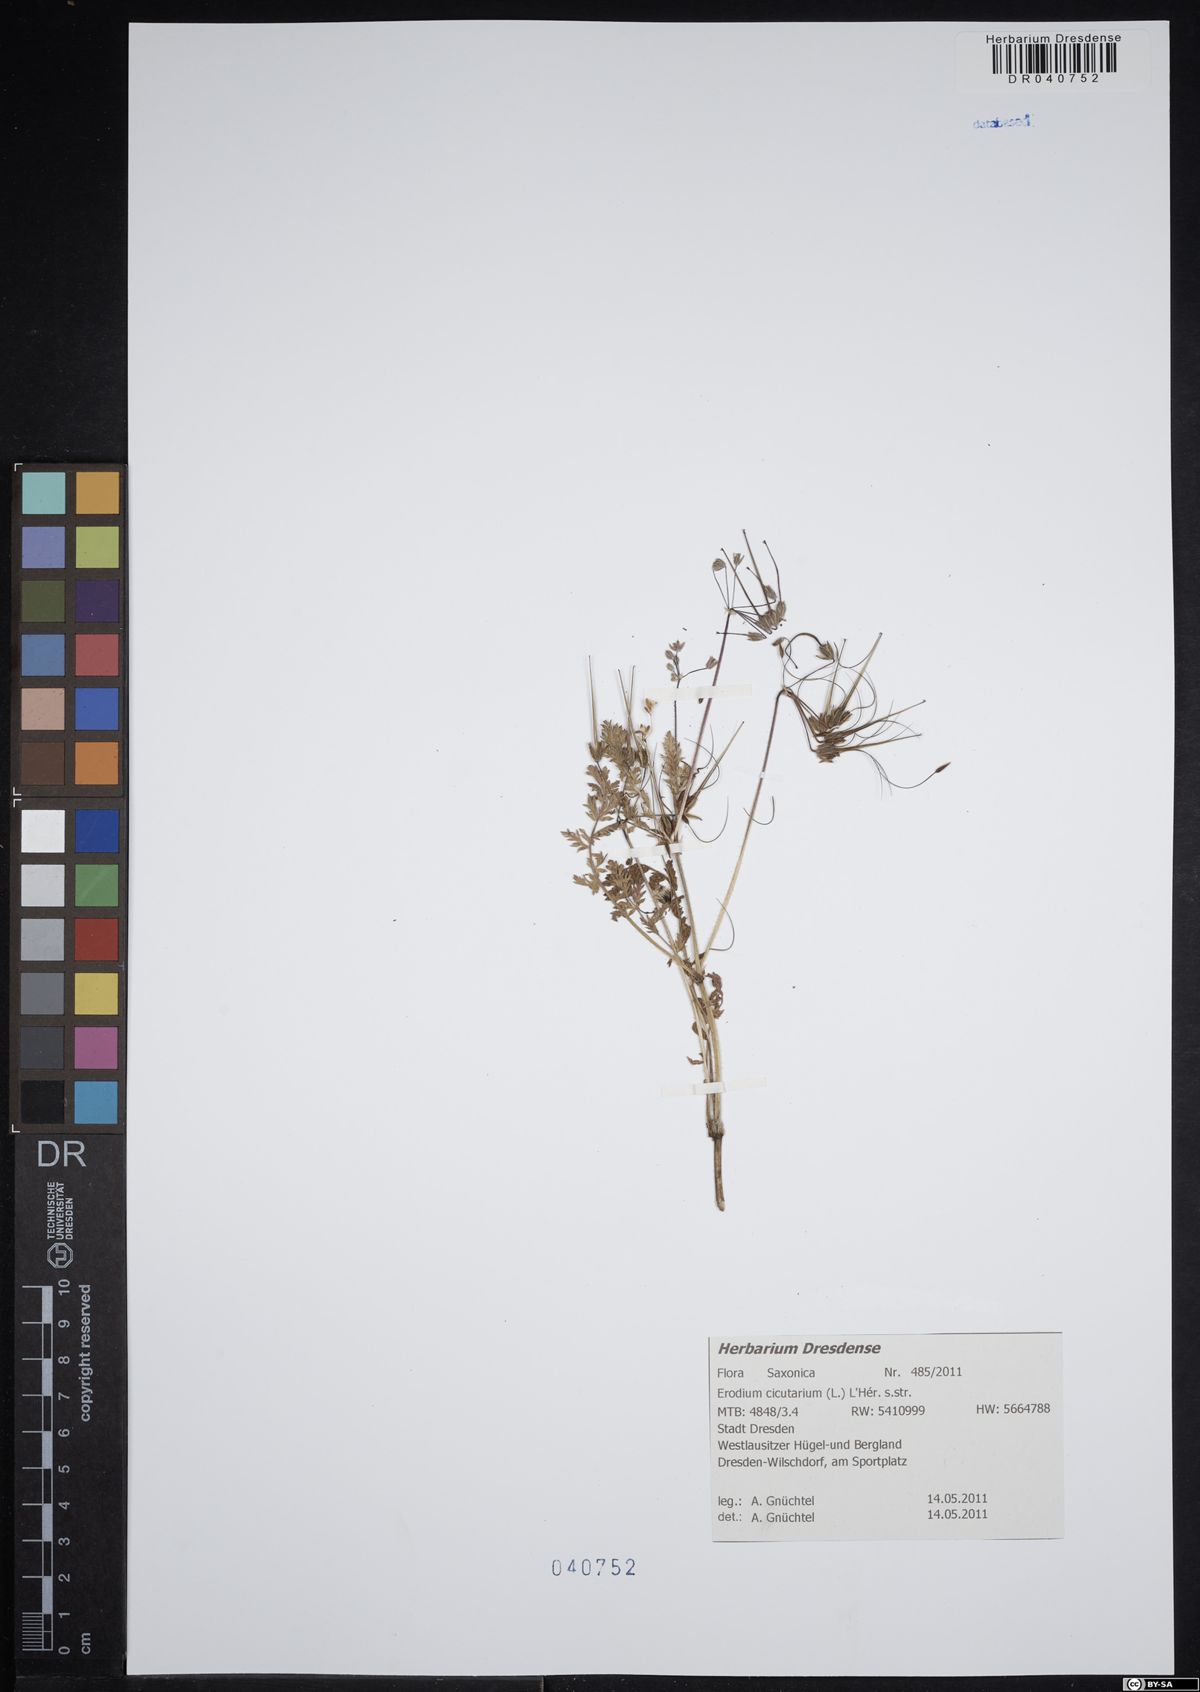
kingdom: Plantae
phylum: Tracheophyta
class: Magnoliopsida
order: Geraniales
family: Geraniaceae
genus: Erodium
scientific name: Erodium cicutarium
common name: Common stork's-bill
